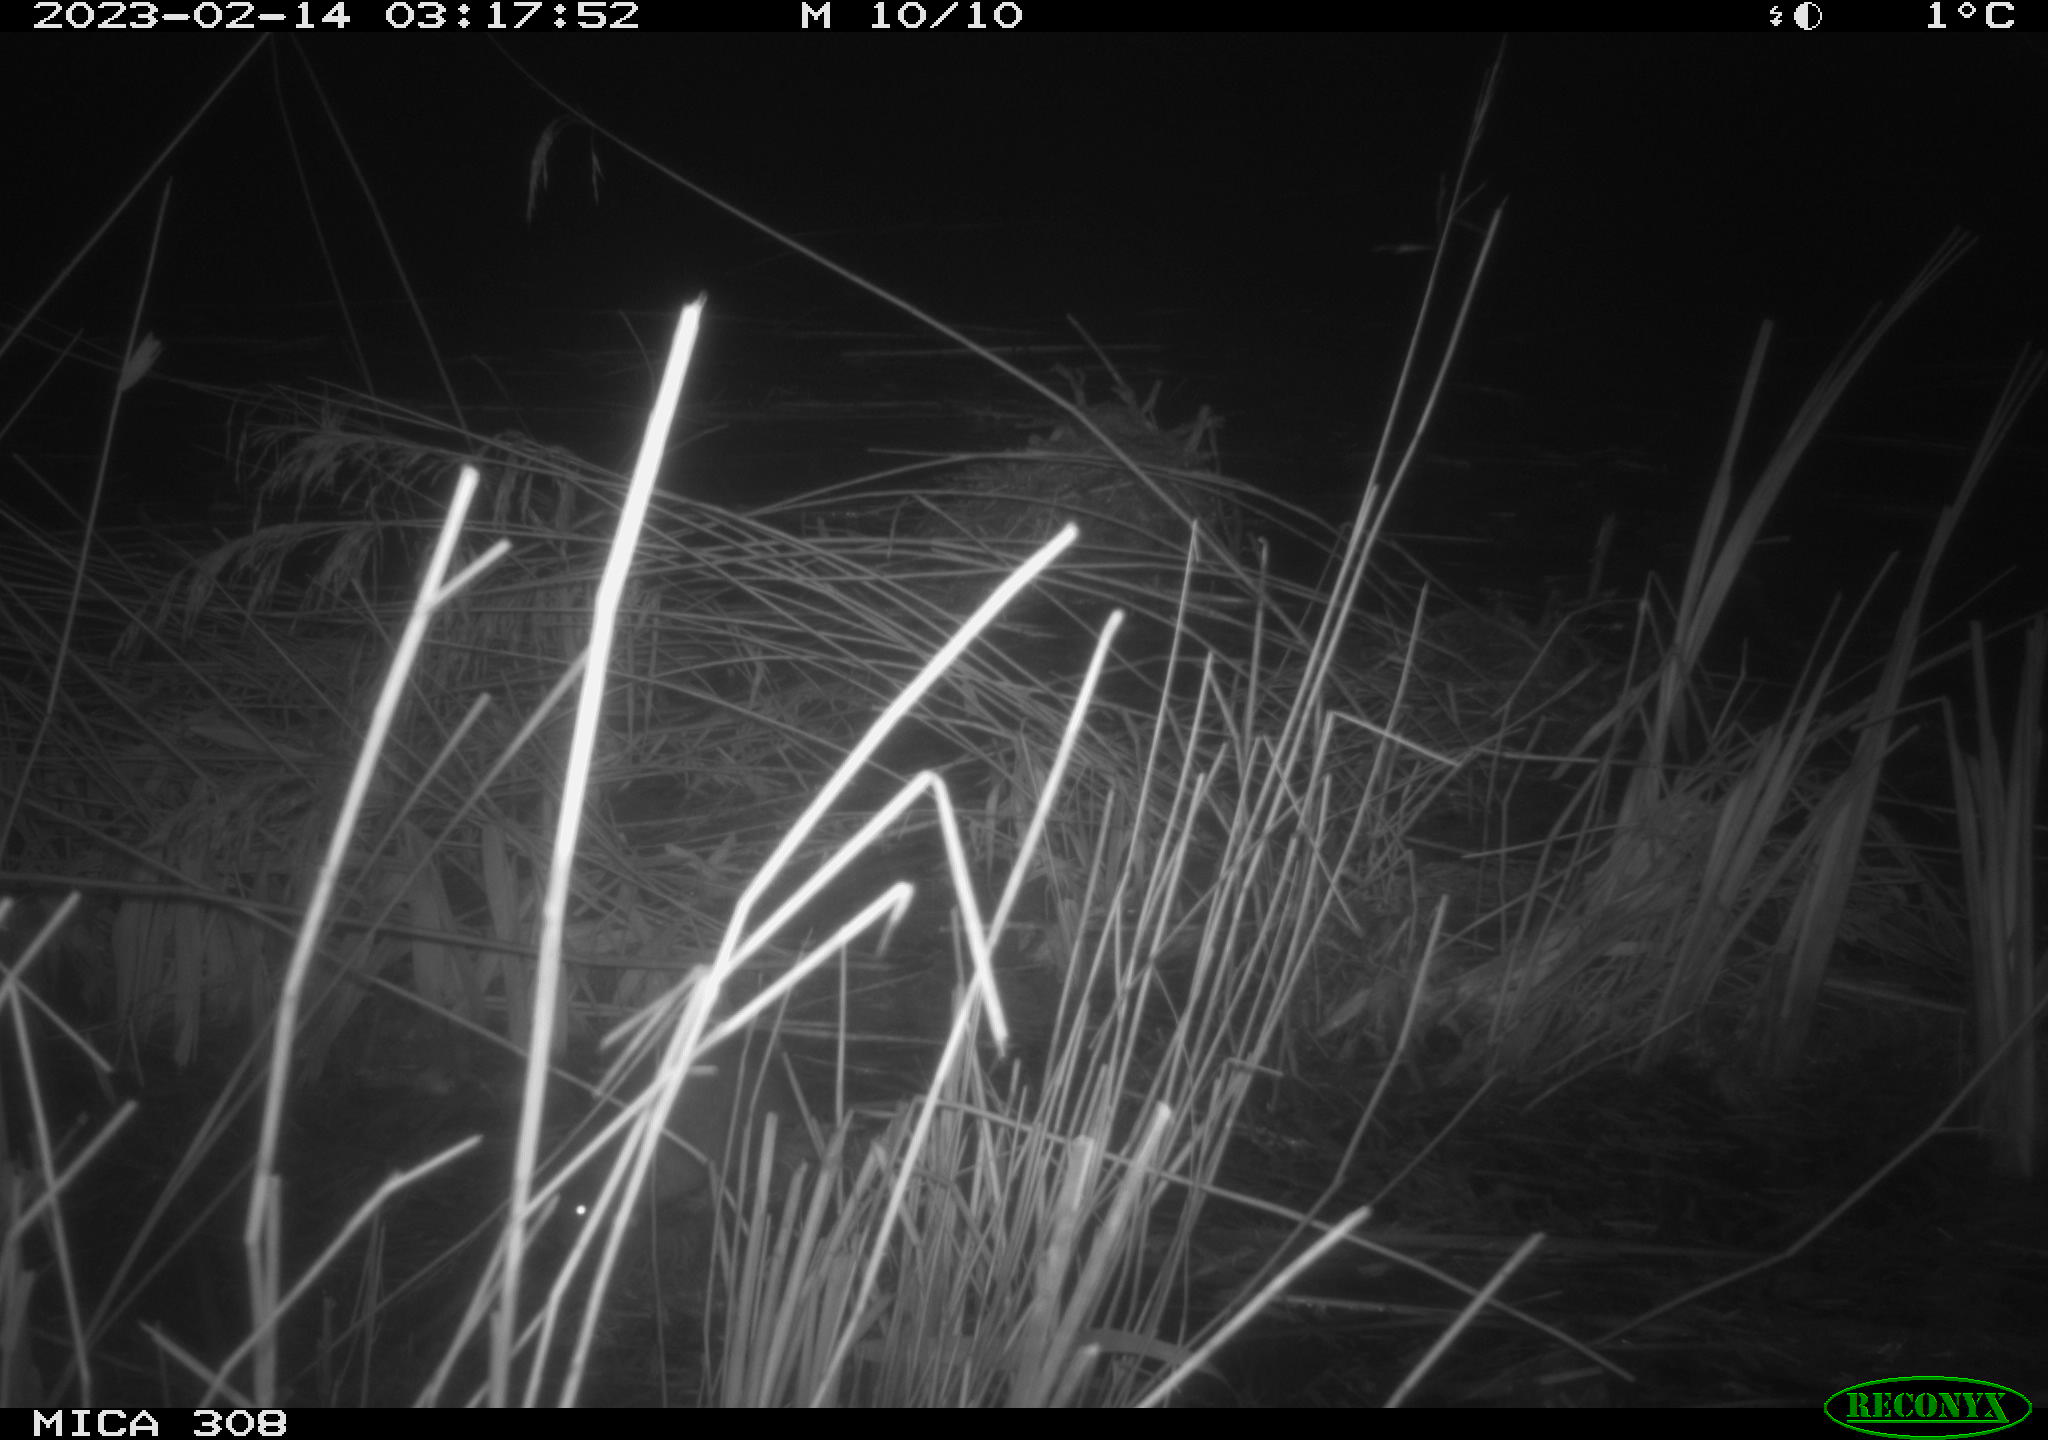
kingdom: Animalia
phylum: Chordata
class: Mammalia
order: Rodentia
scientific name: Rodentia
